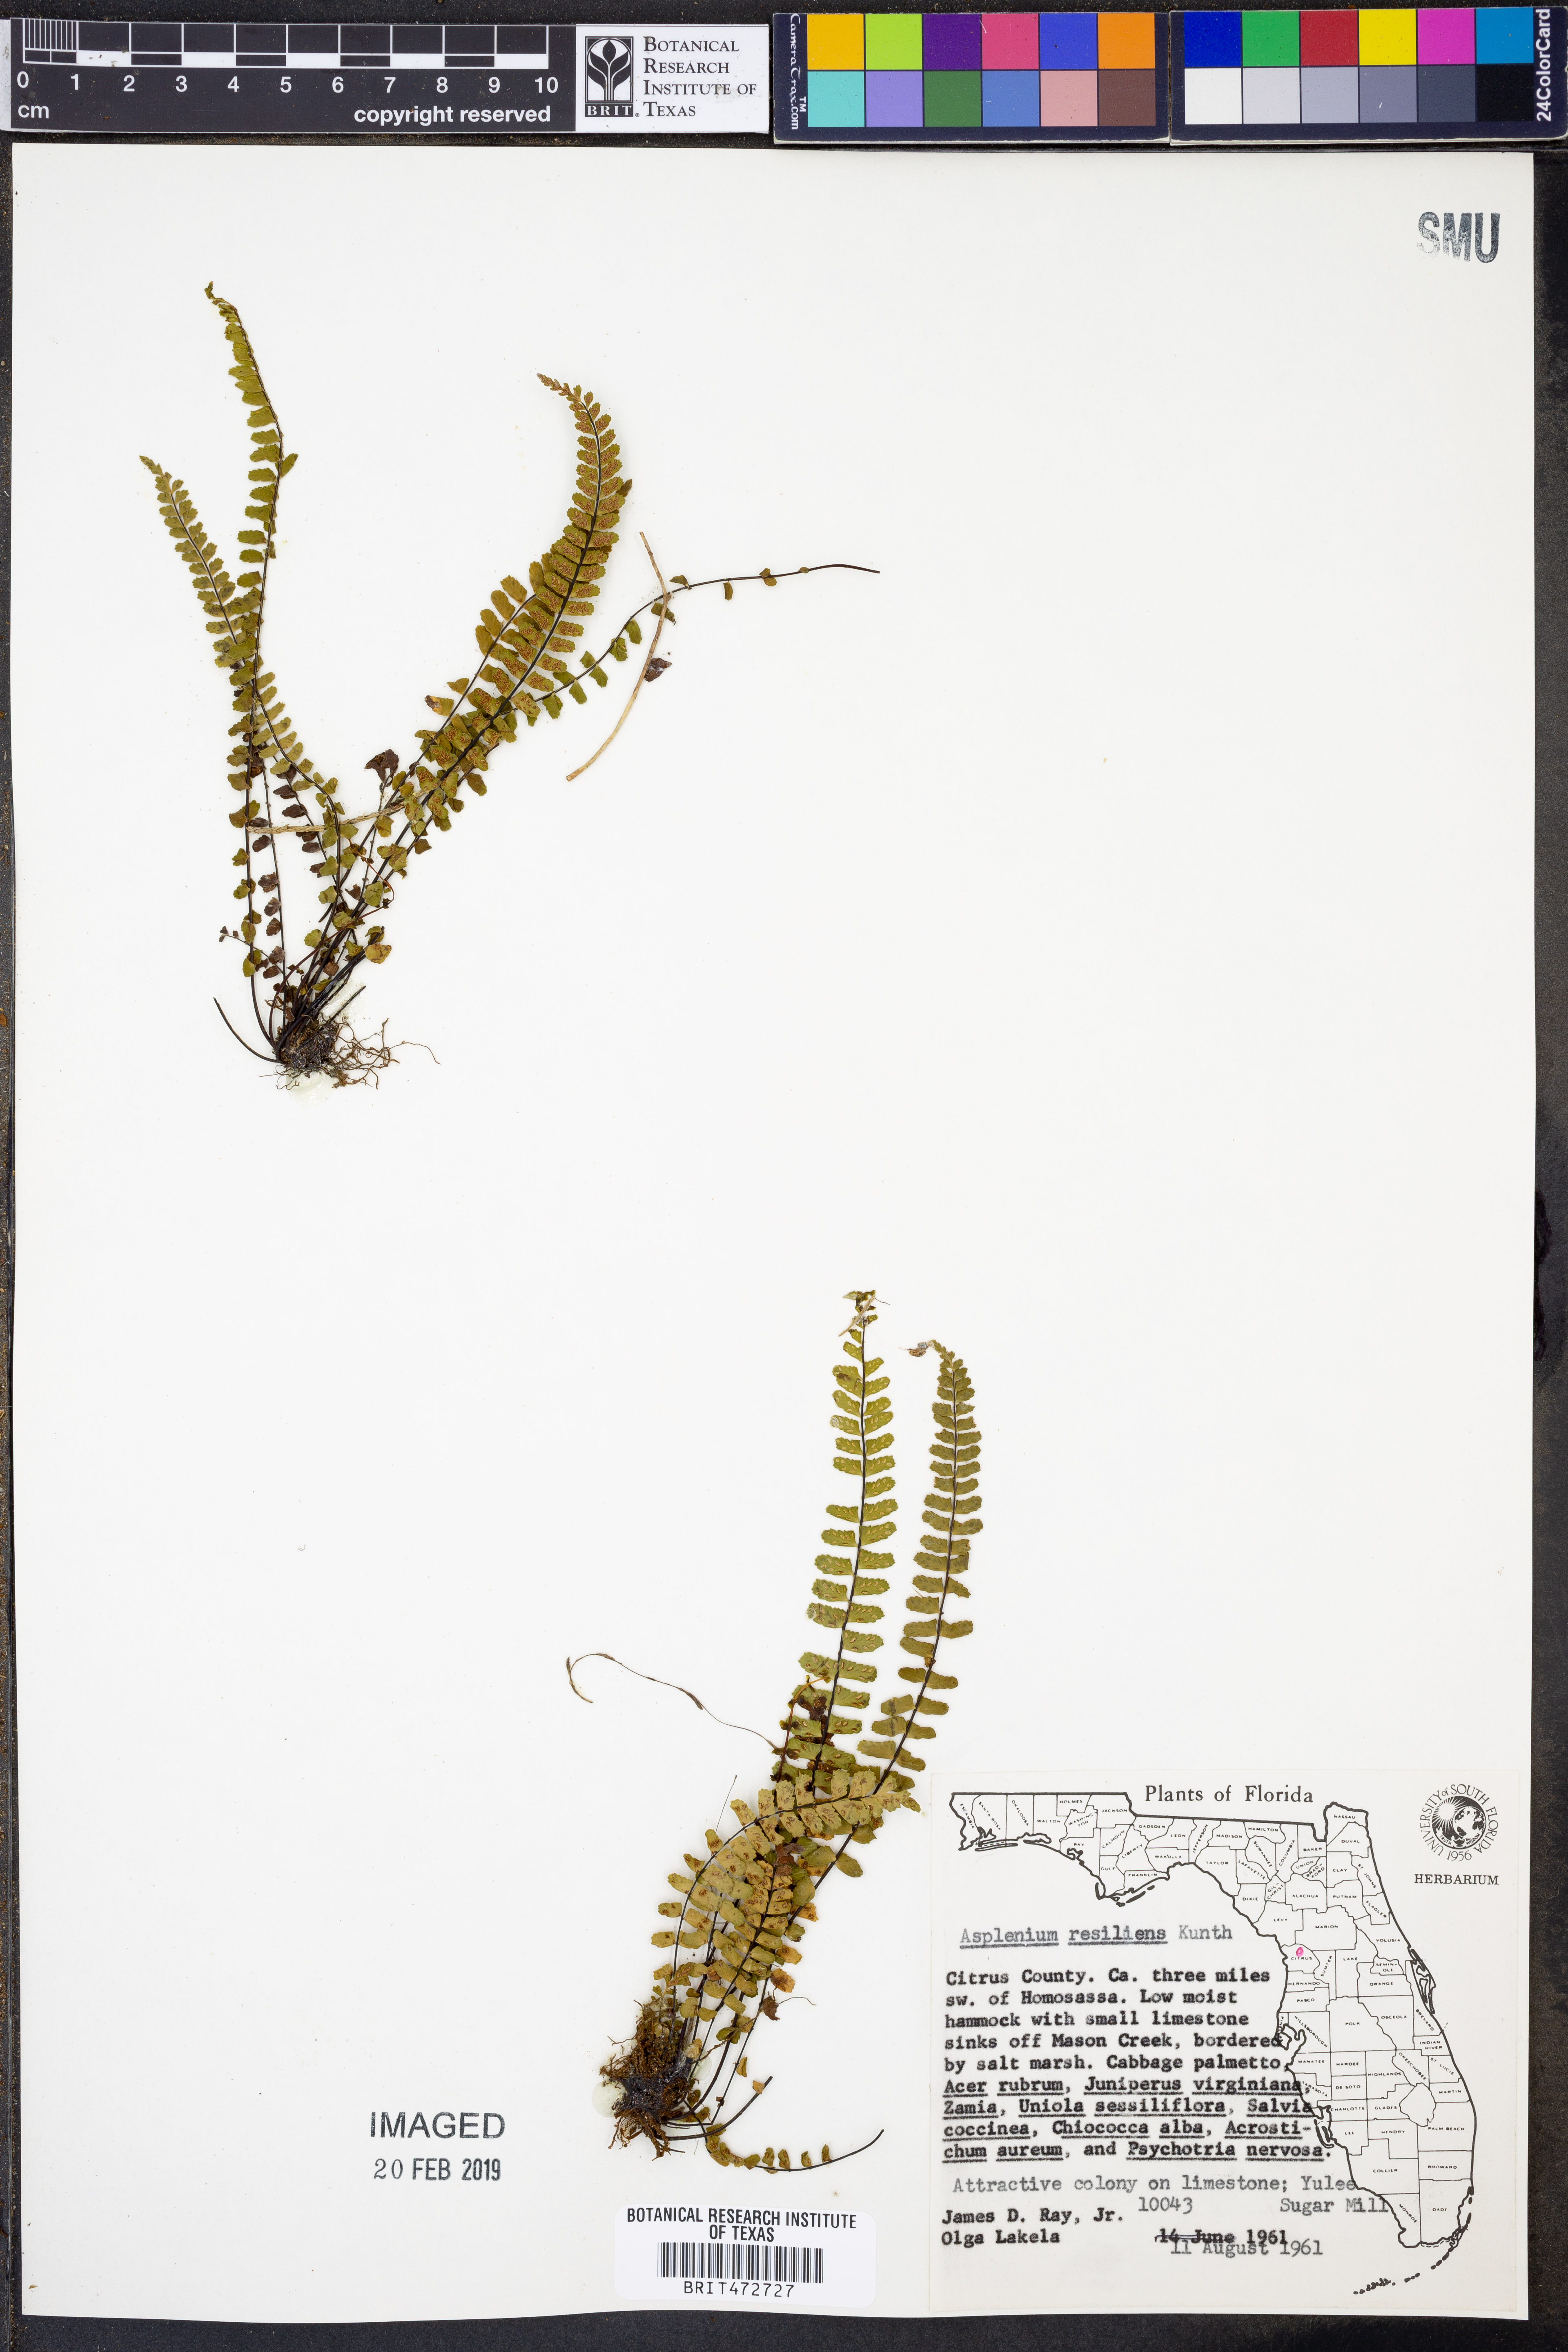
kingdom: Plantae
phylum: Tracheophyta
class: Polypodiopsida
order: Polypodiales
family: Aspleniaceae
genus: Asplenium
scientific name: Asplenium resiliens
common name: Blackstem spleenwort
